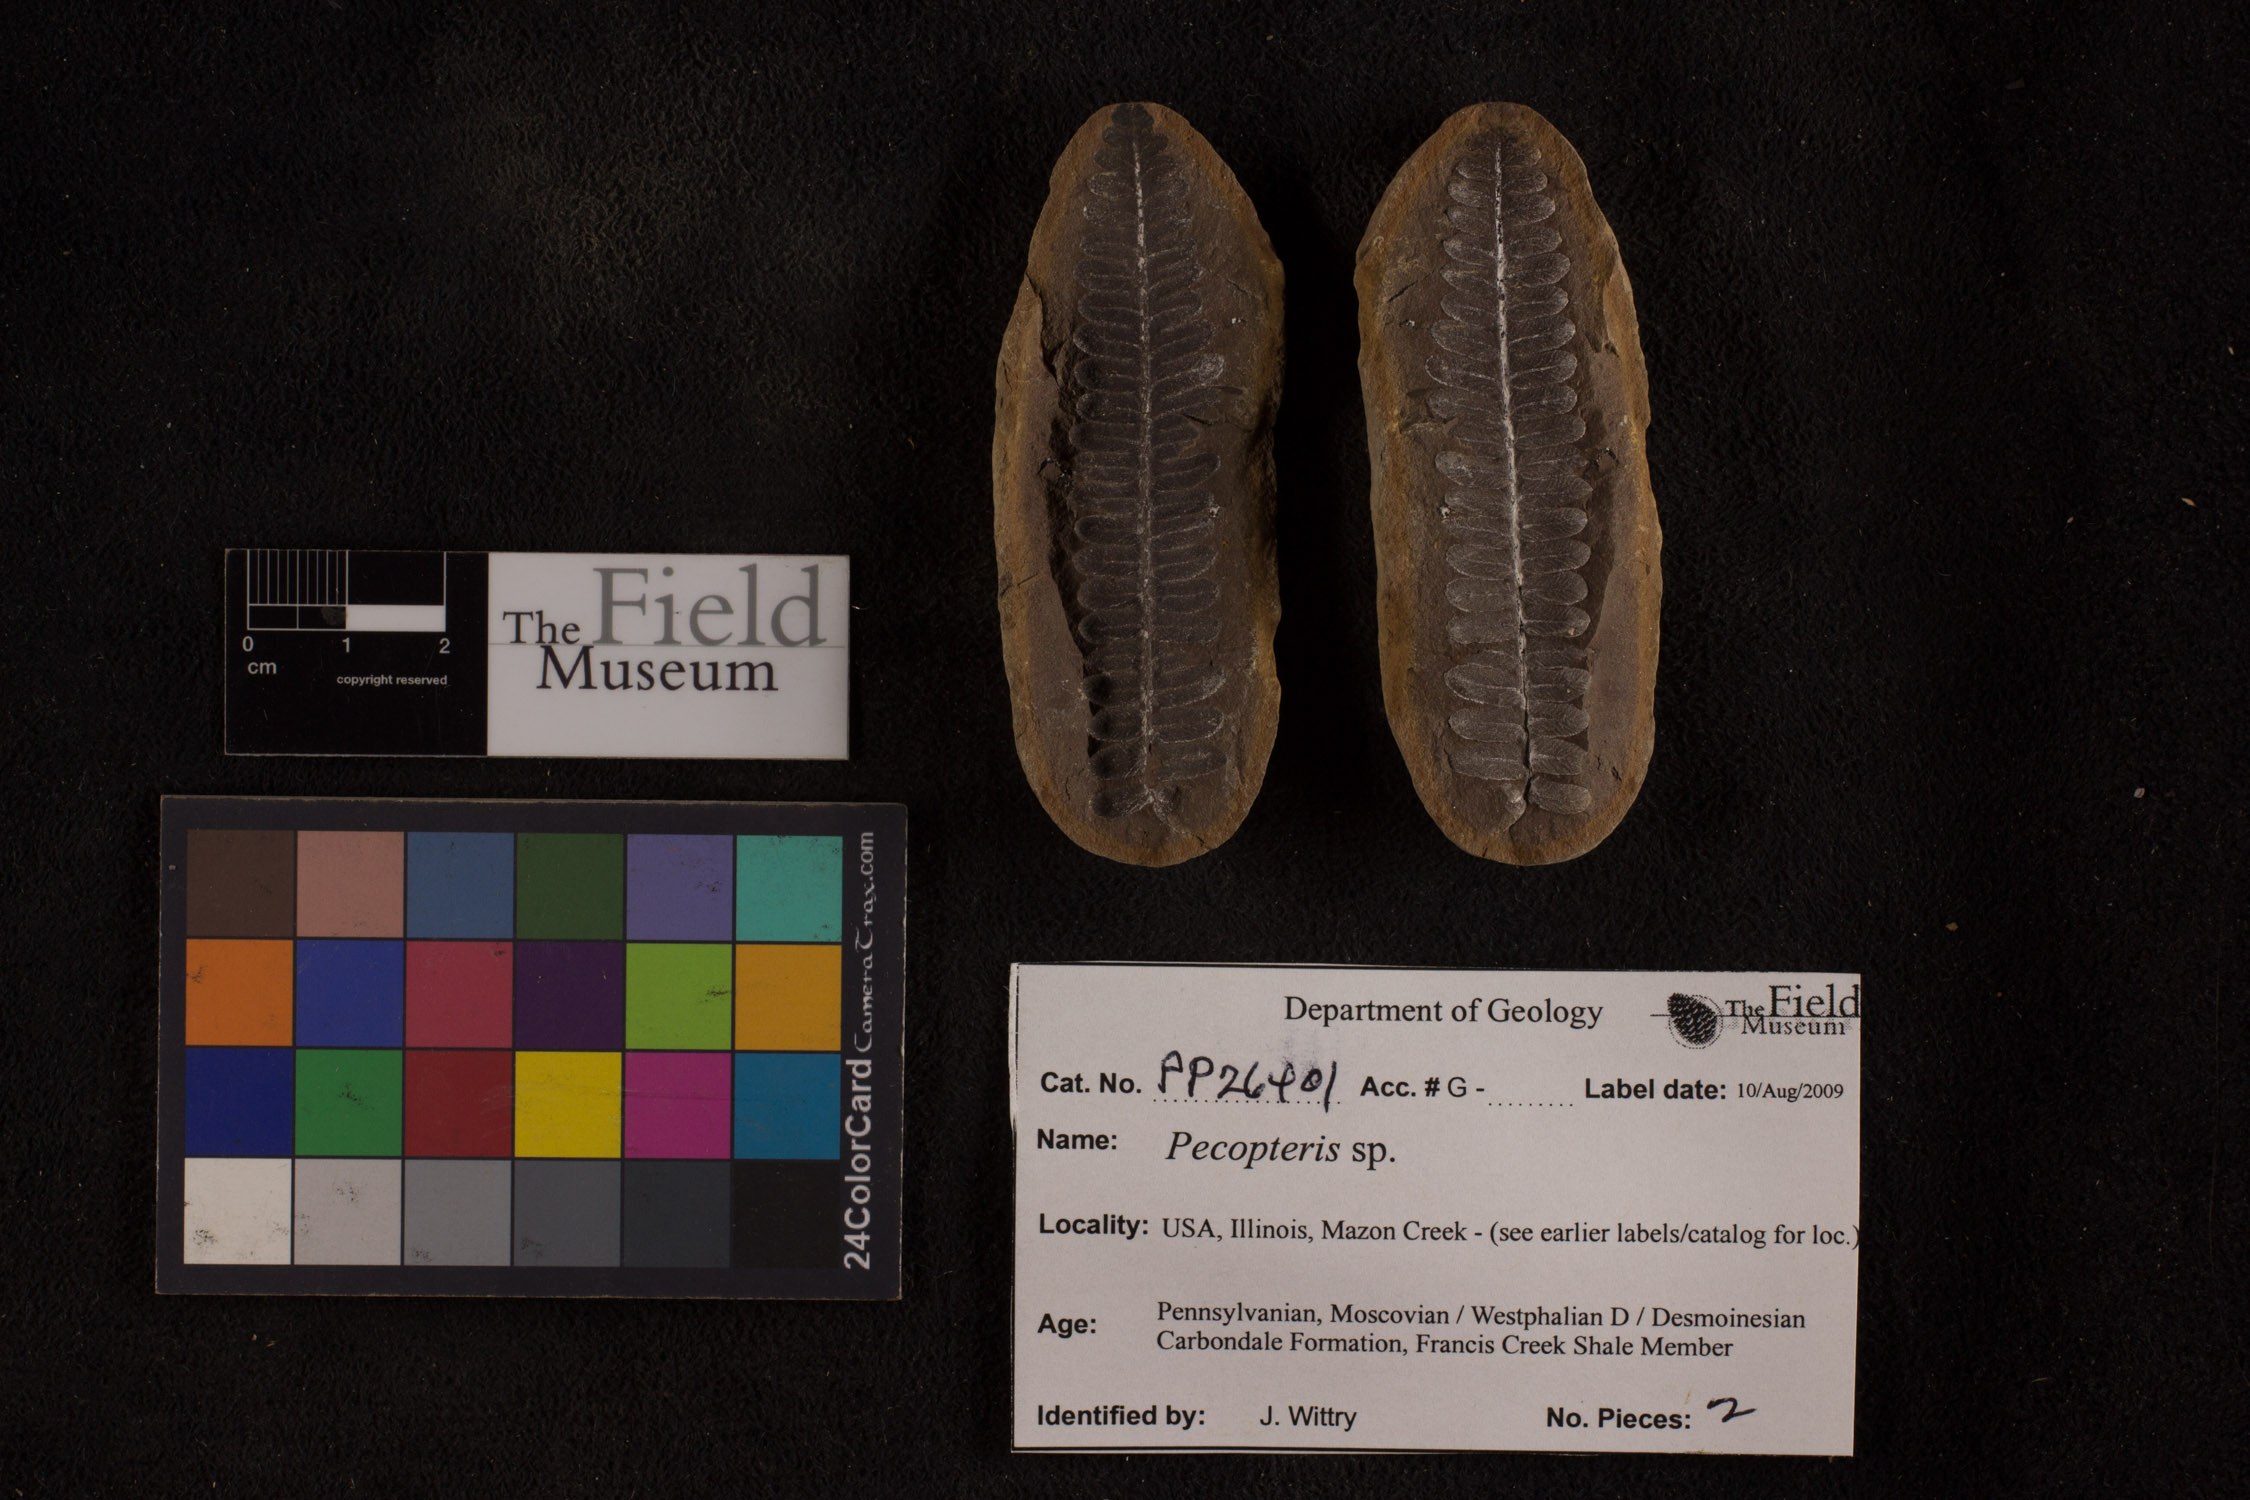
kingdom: Plantae
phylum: Tracheophyta
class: Polypodiopsida
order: Marattiales
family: Asterothecaceae
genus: Pecopteris
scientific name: Pecopteris
